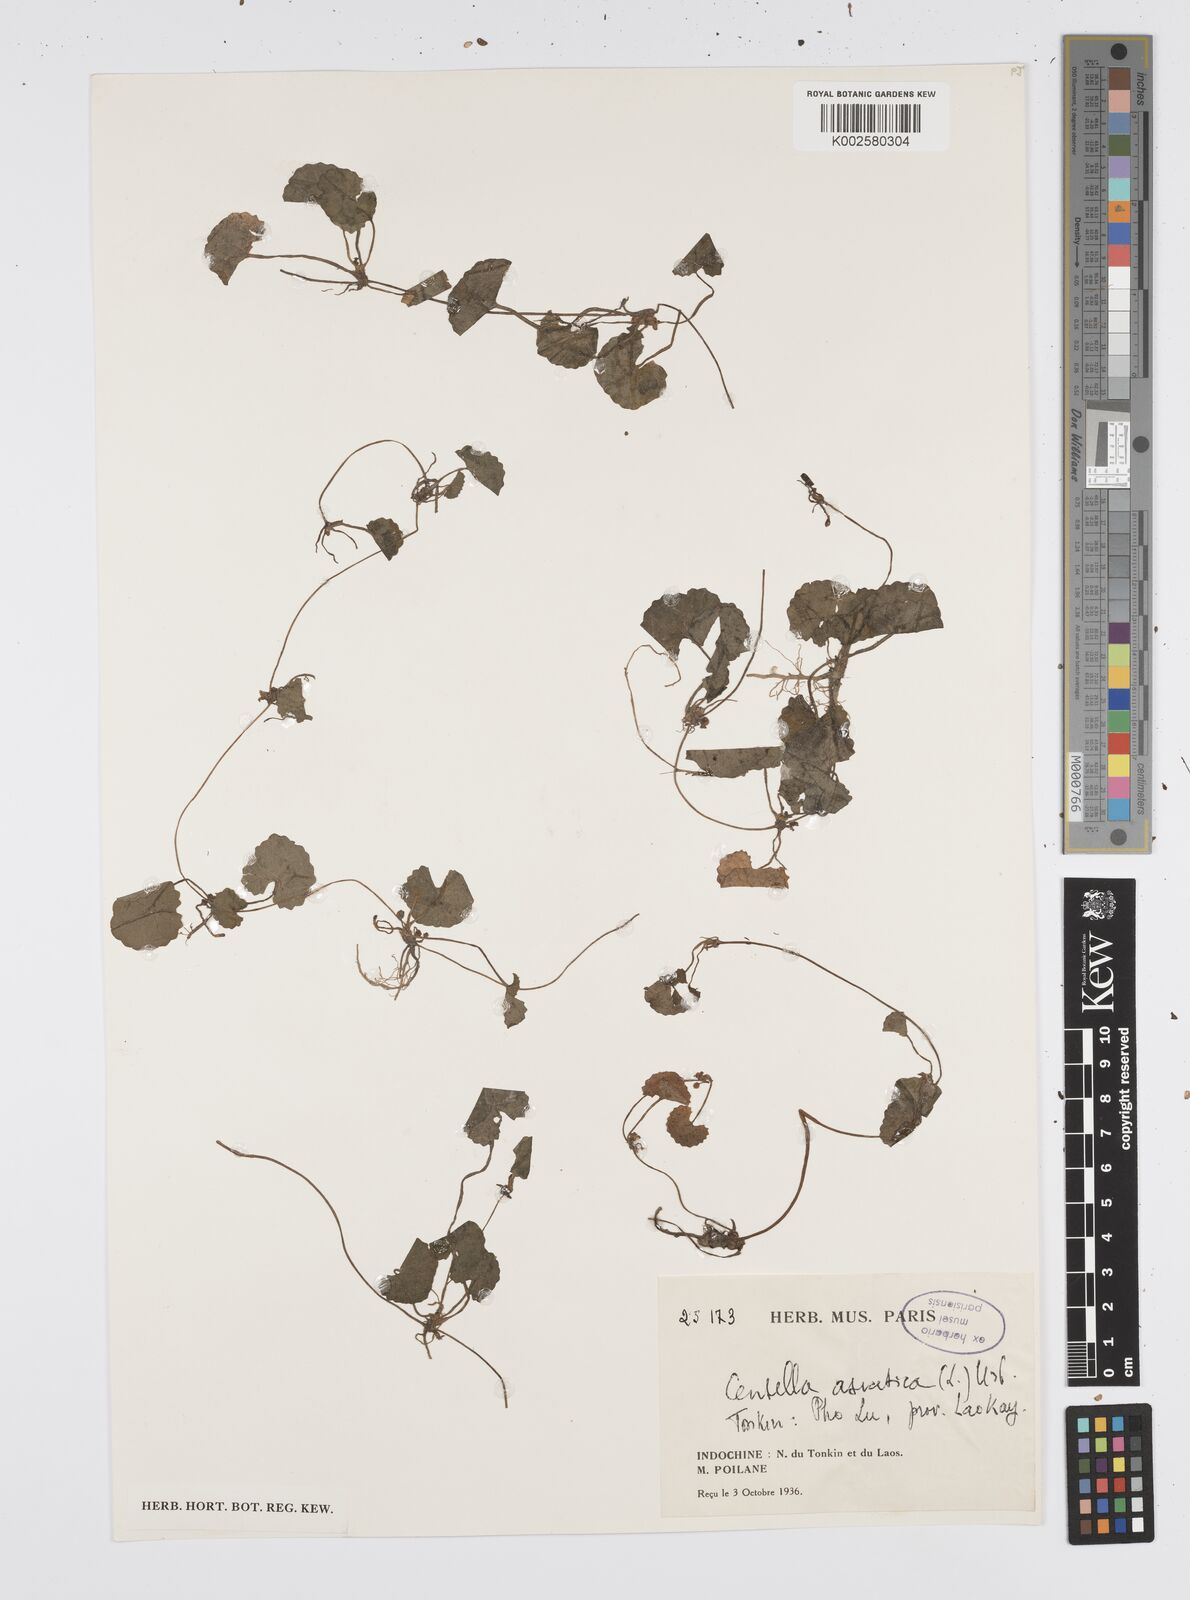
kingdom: Plantae
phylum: Tracheophyta
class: Magnoliopsida
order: Apiales
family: Apiaceae
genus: Centella
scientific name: Centella asiatica
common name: Spadeleaf
